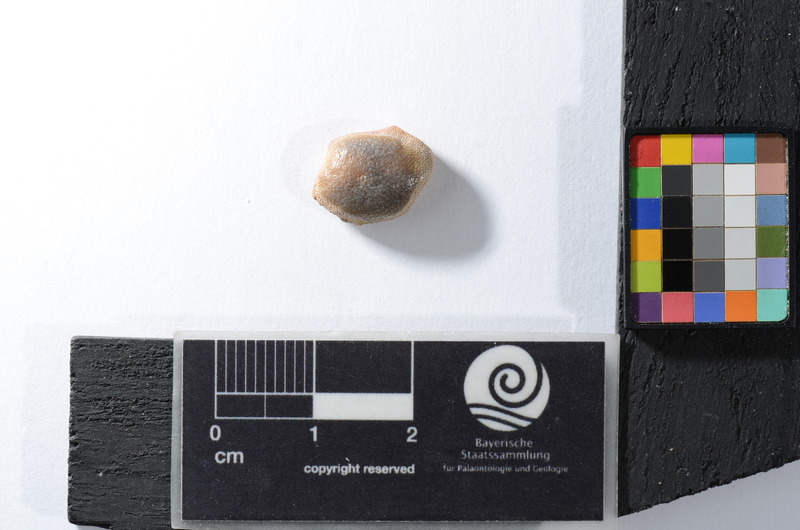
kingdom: Animalia
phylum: Chordata
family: Pycnodontidae
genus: Pycnodus
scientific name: Pycnodus gigas
